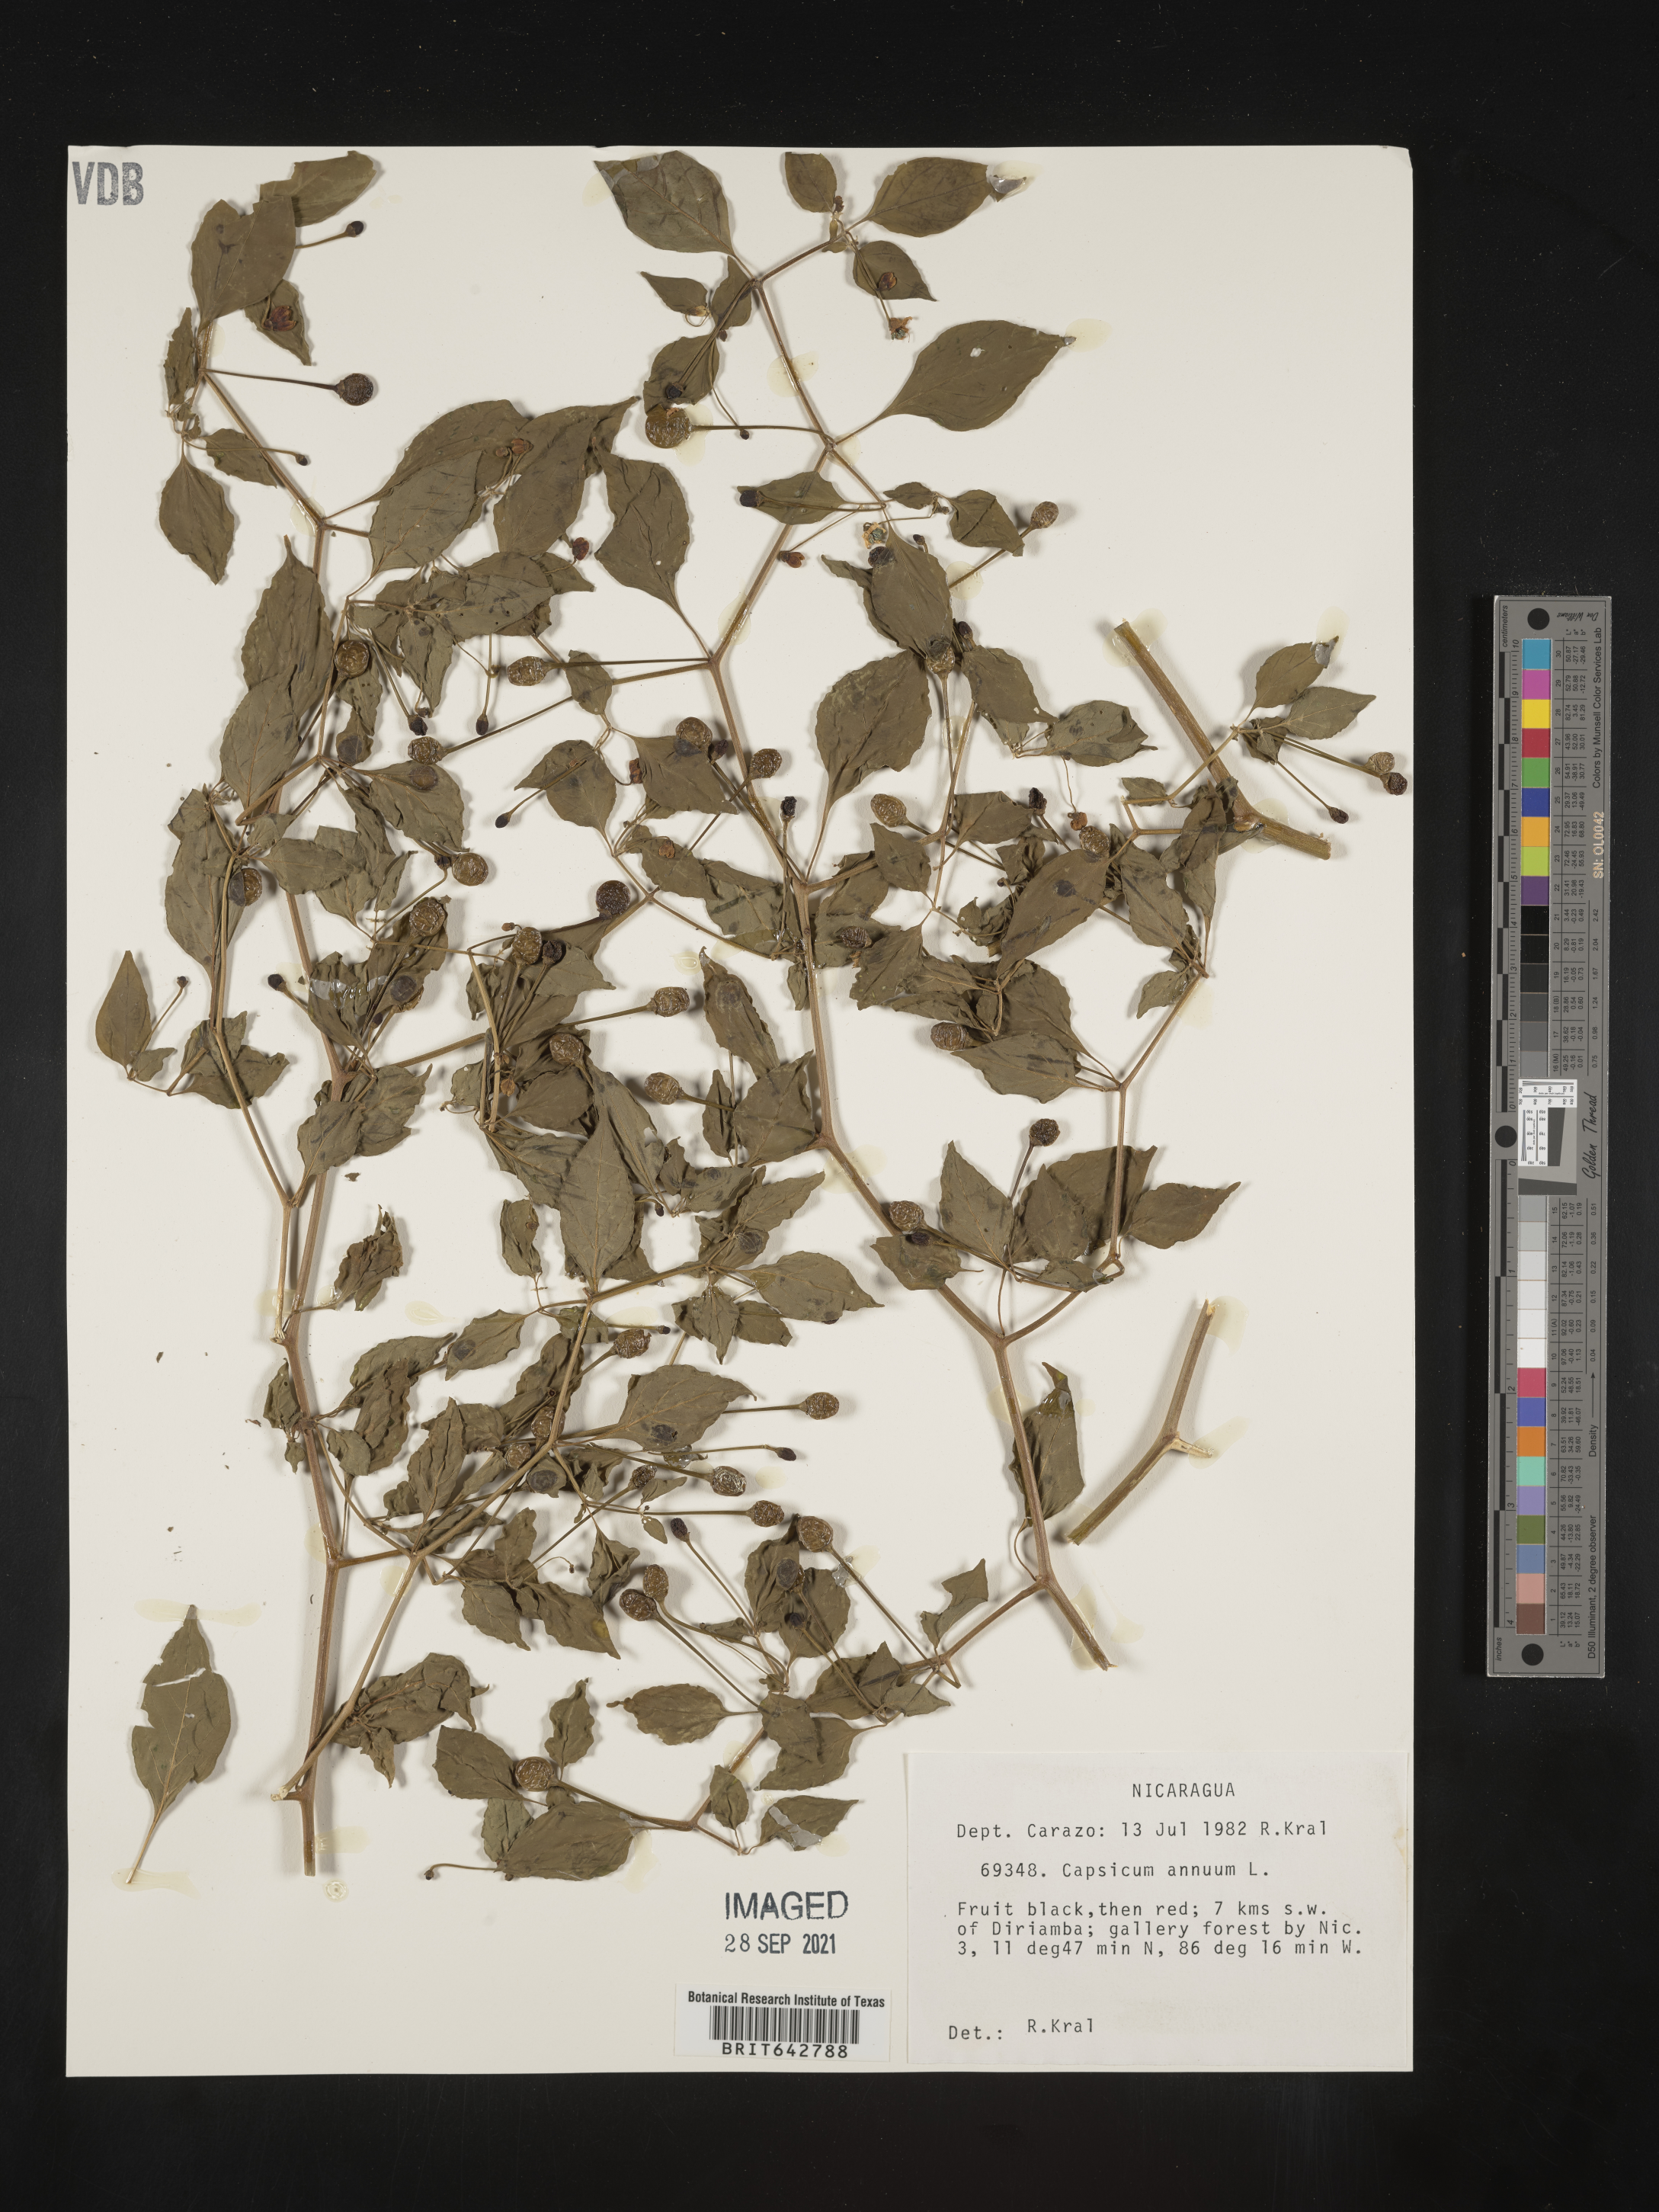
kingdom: Plantae
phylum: Tracheophyta
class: Magnoliopsida
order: Solanales
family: Solanaceae
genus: Capsicum
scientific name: Capsicum
